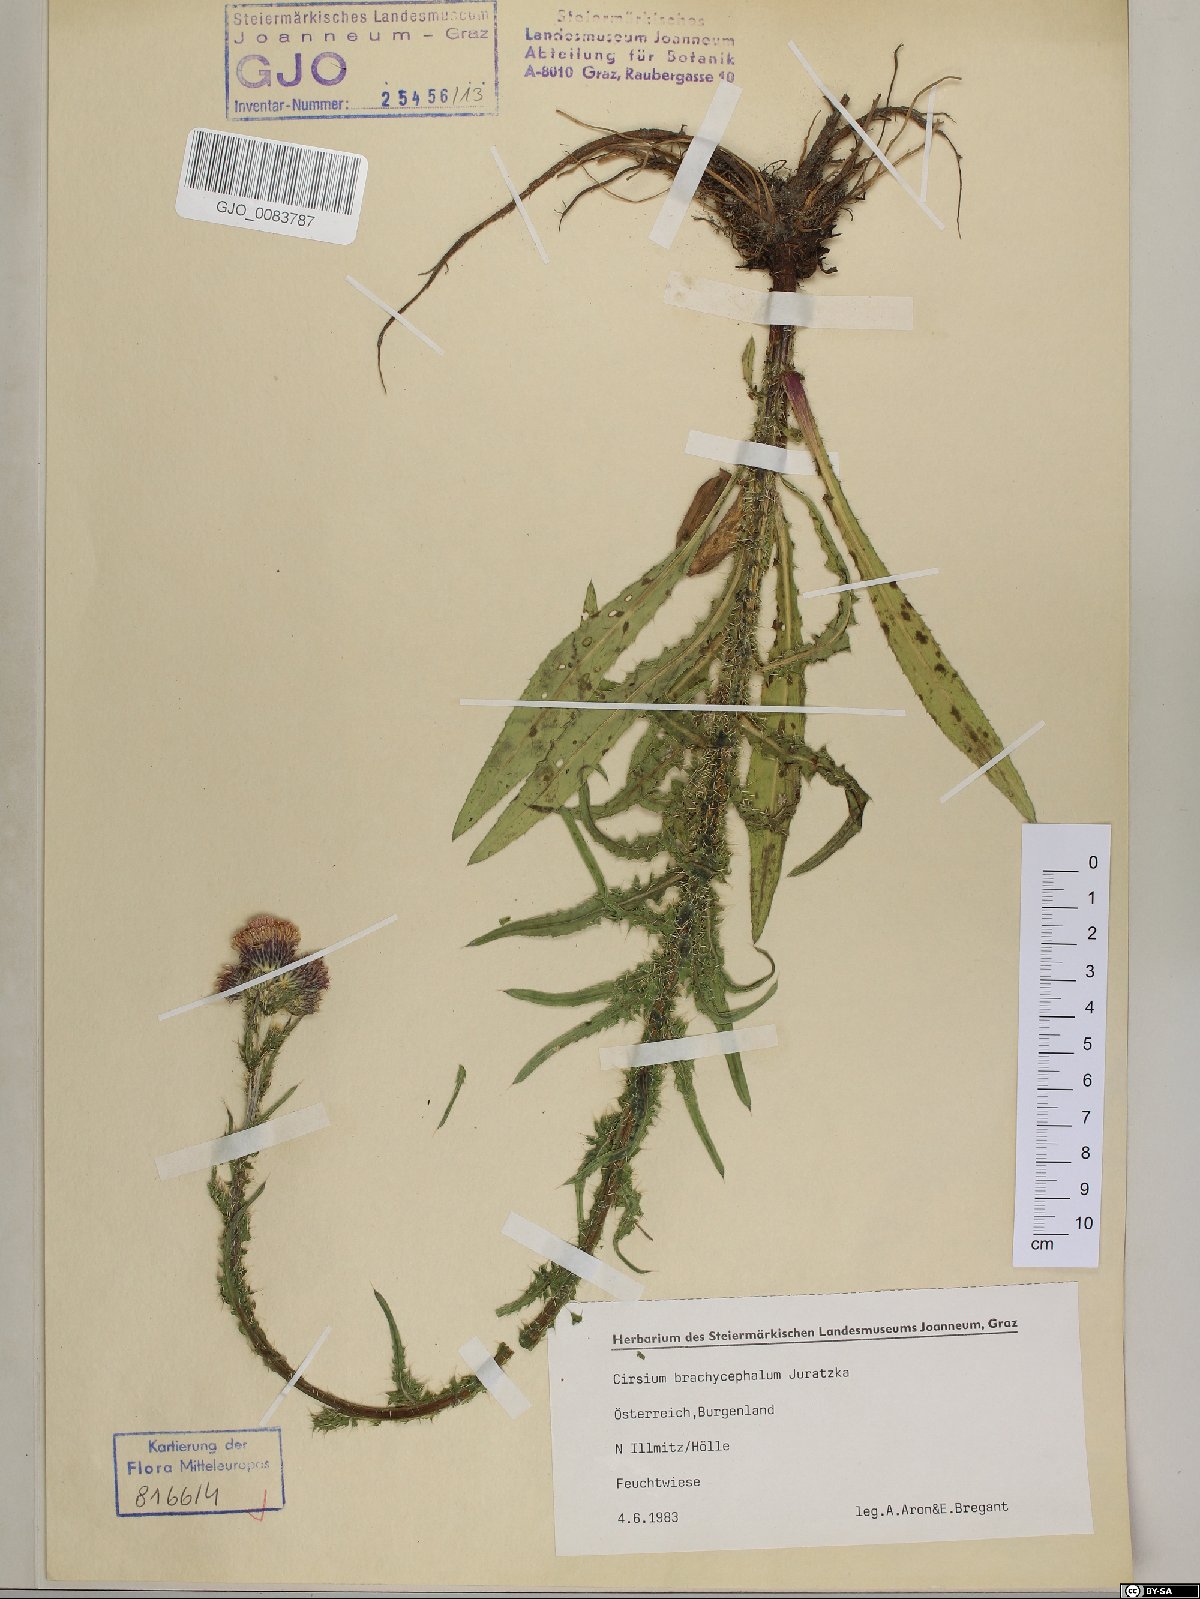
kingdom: Plantae
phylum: Tracheophyta
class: Magnoliopsida
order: Asterales
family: Asteraceae
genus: Cirsium
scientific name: Cirsium brachycephalum
